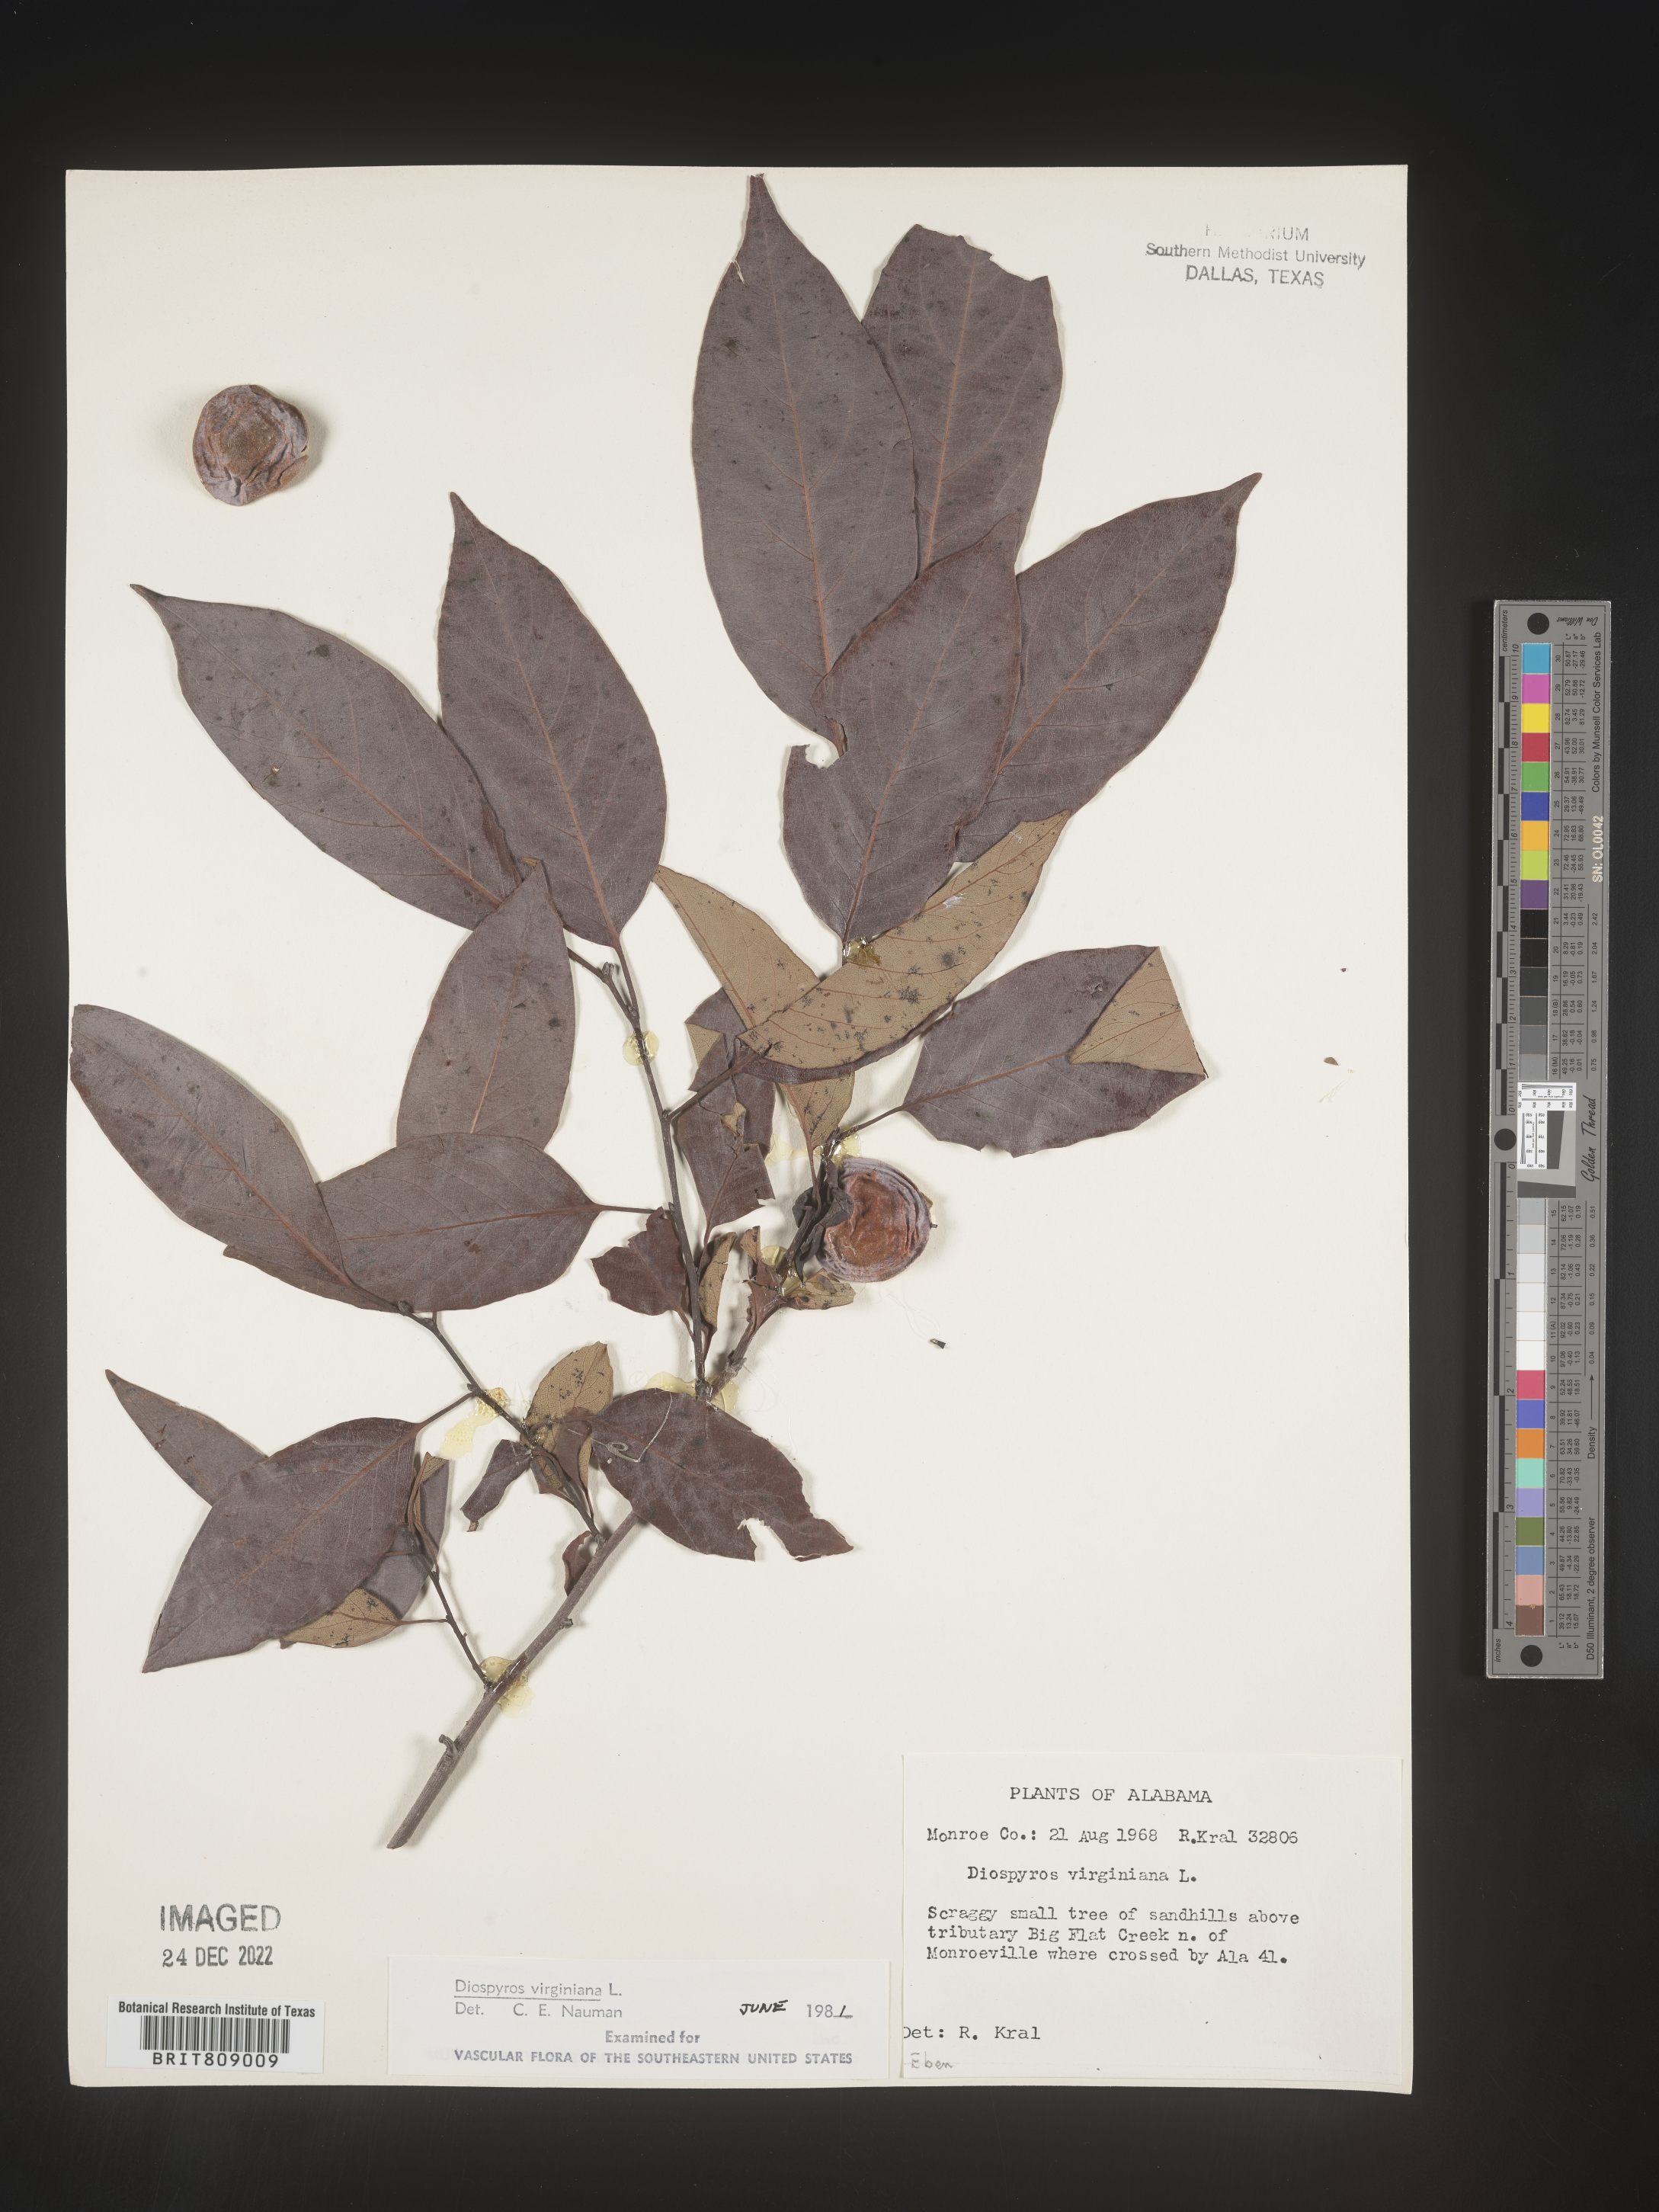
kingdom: Plantae
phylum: Tracheophyta
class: Magnoliopsida
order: Ericales
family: Ebenaceae
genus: Diospyros
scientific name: Diospyros virginiana
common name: Persimmon
